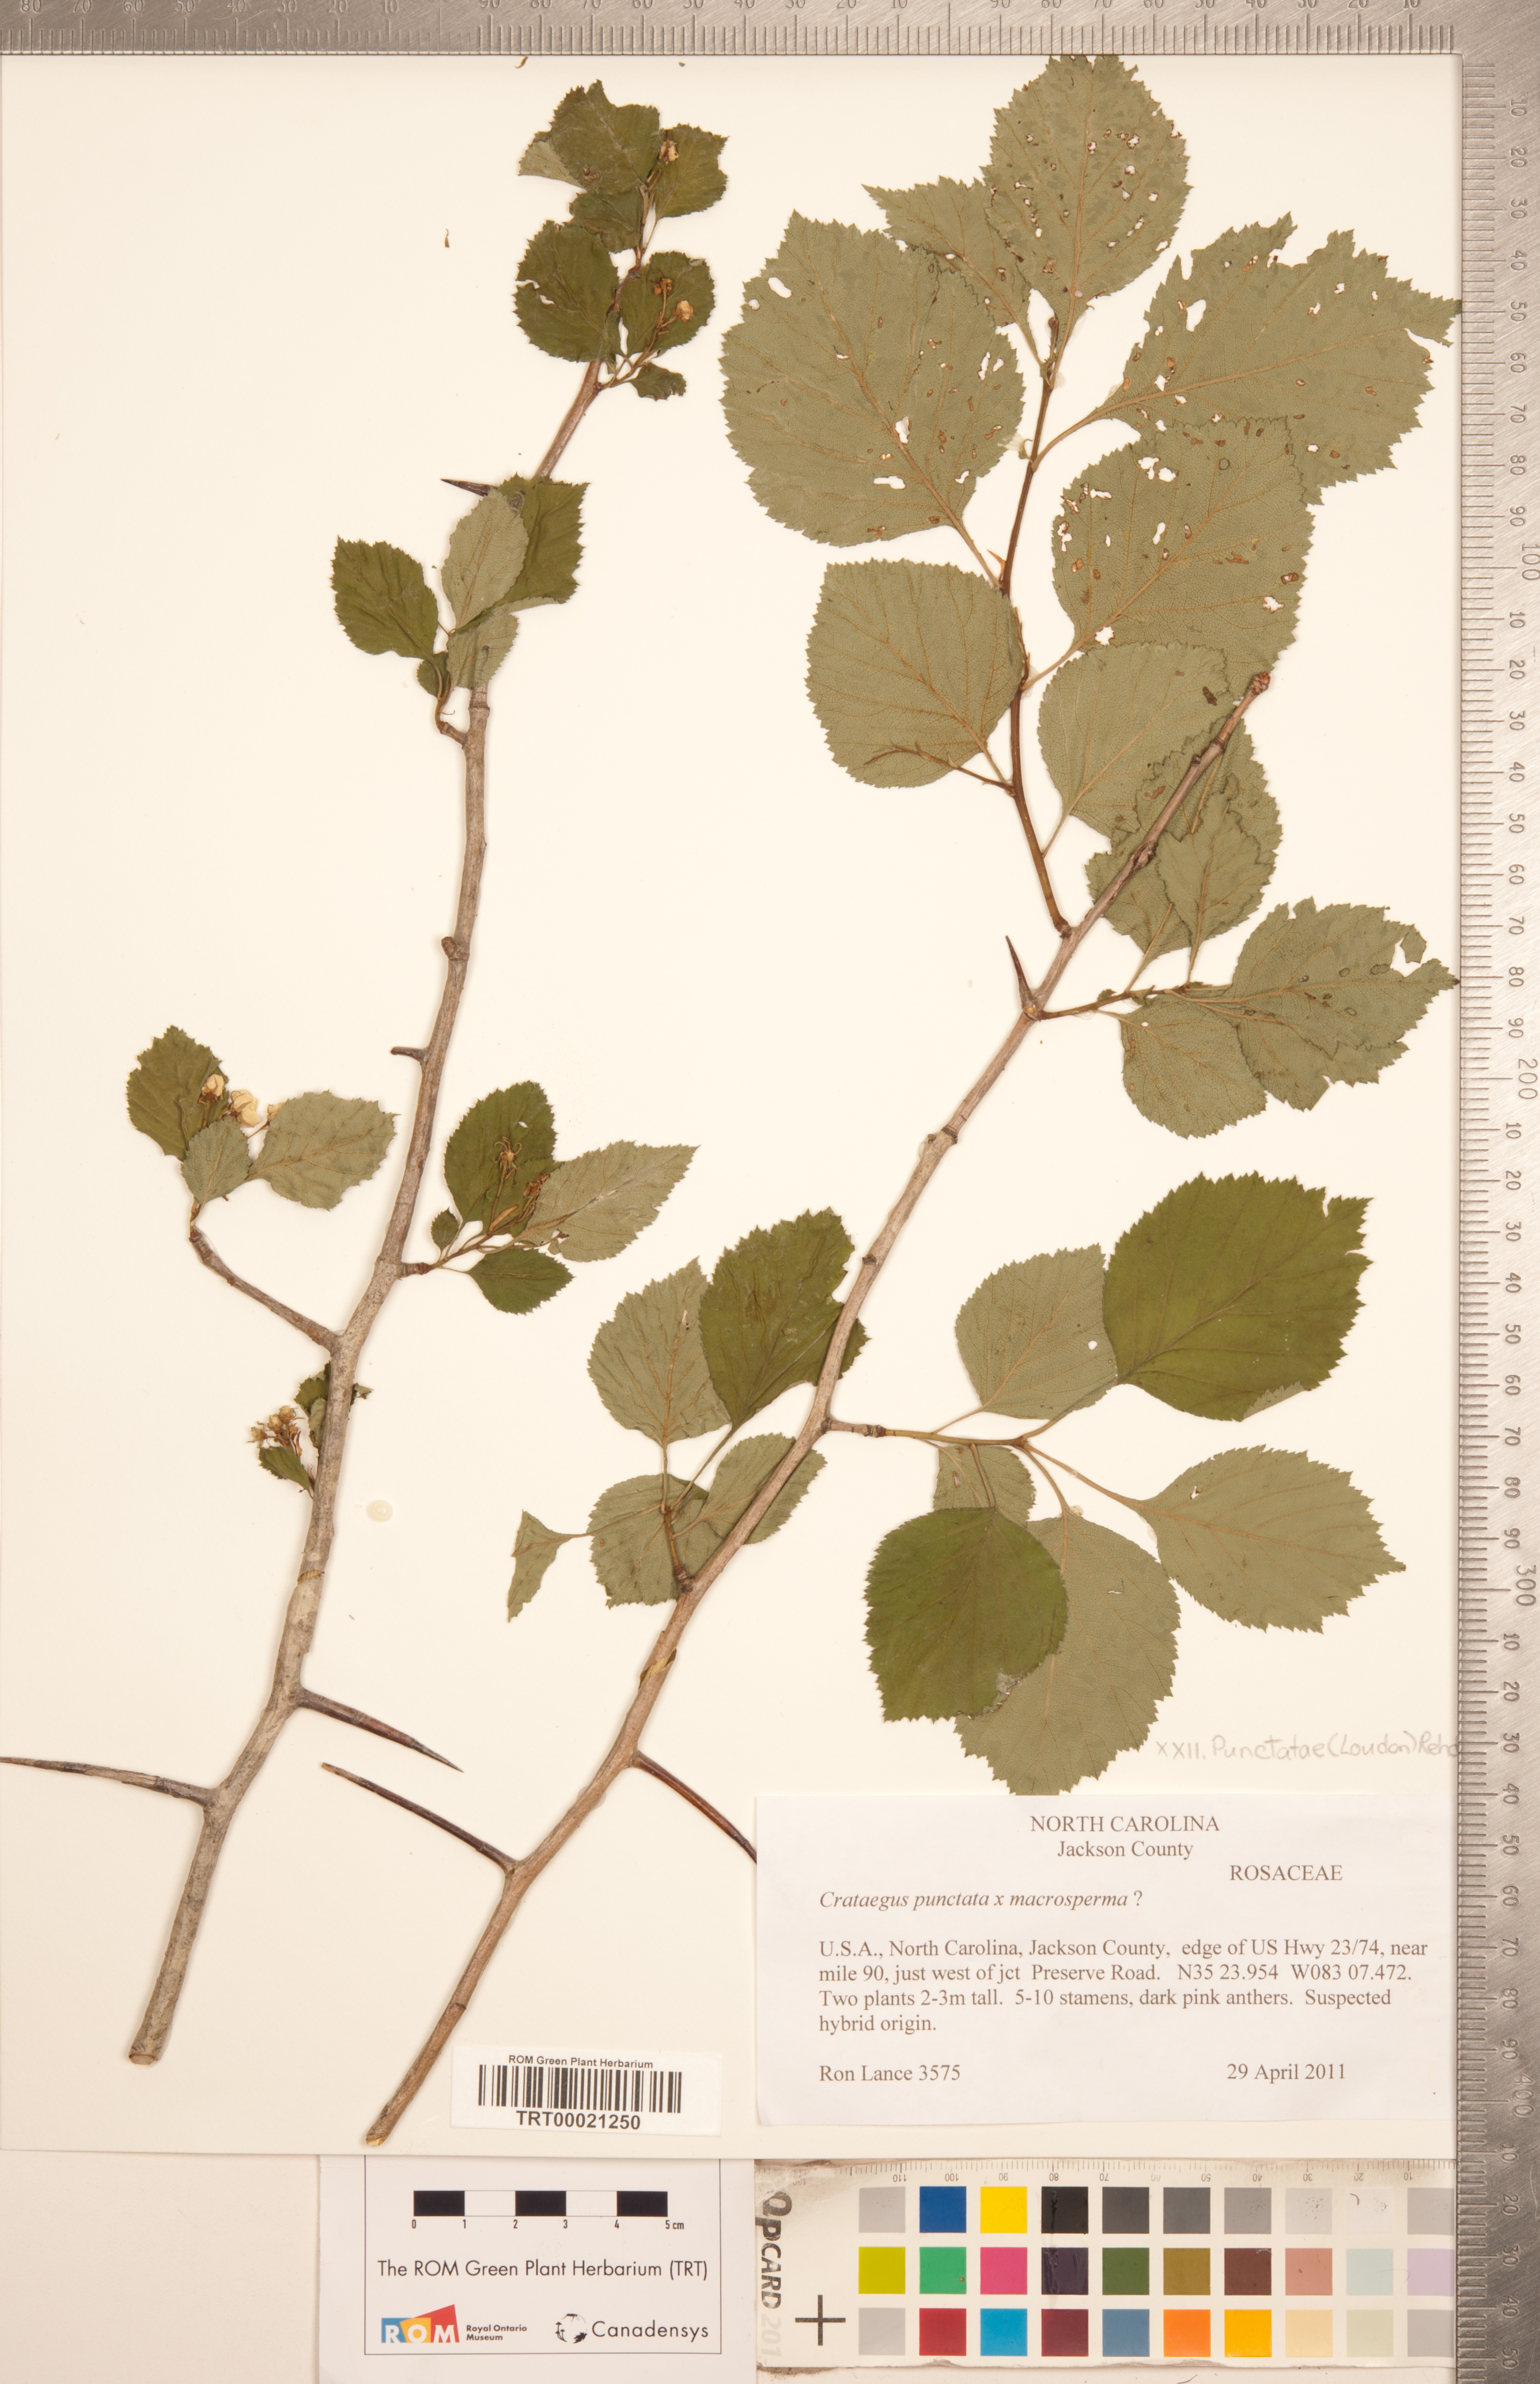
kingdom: Plantae
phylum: Tracheophyta
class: Magnoliopsida
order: Rosales
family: Rosaceae
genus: Crataegus
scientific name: Crataegus
